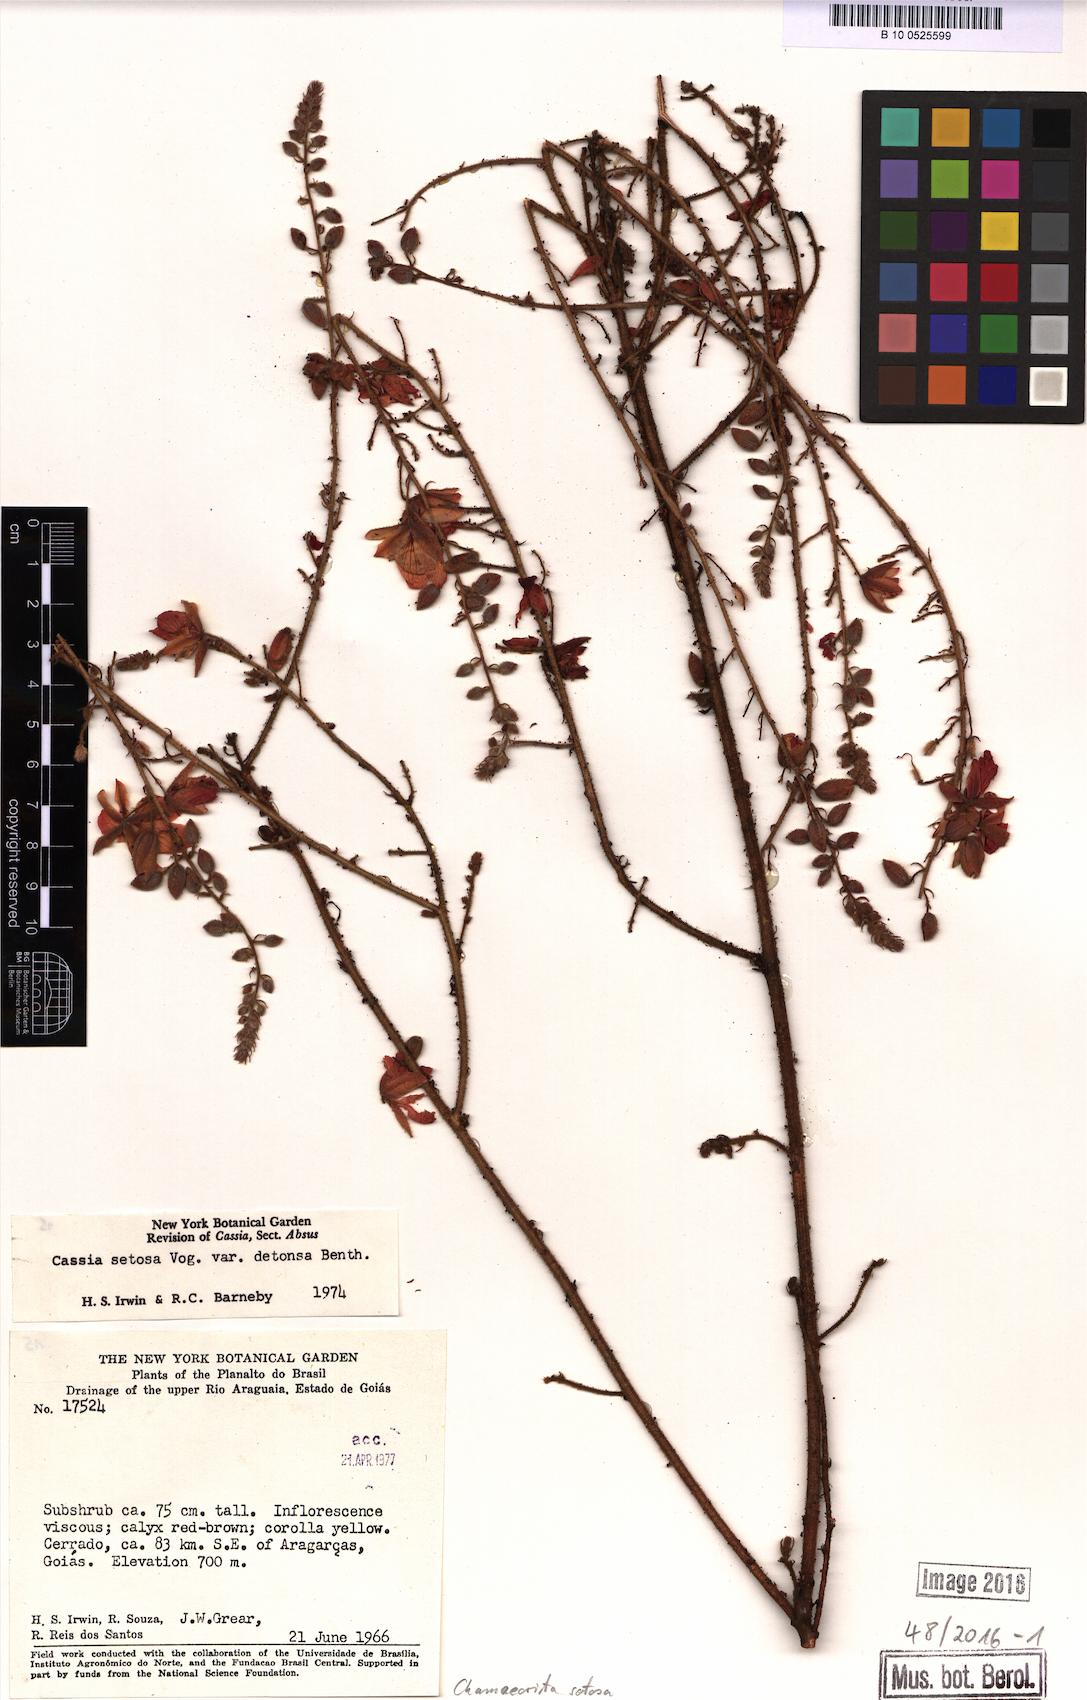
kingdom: Plantae
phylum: Tracheophyta
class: Magnoliopsida
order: Fabales
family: Fabaceae
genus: Chamaecrista
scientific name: Chamaecrista setosa
